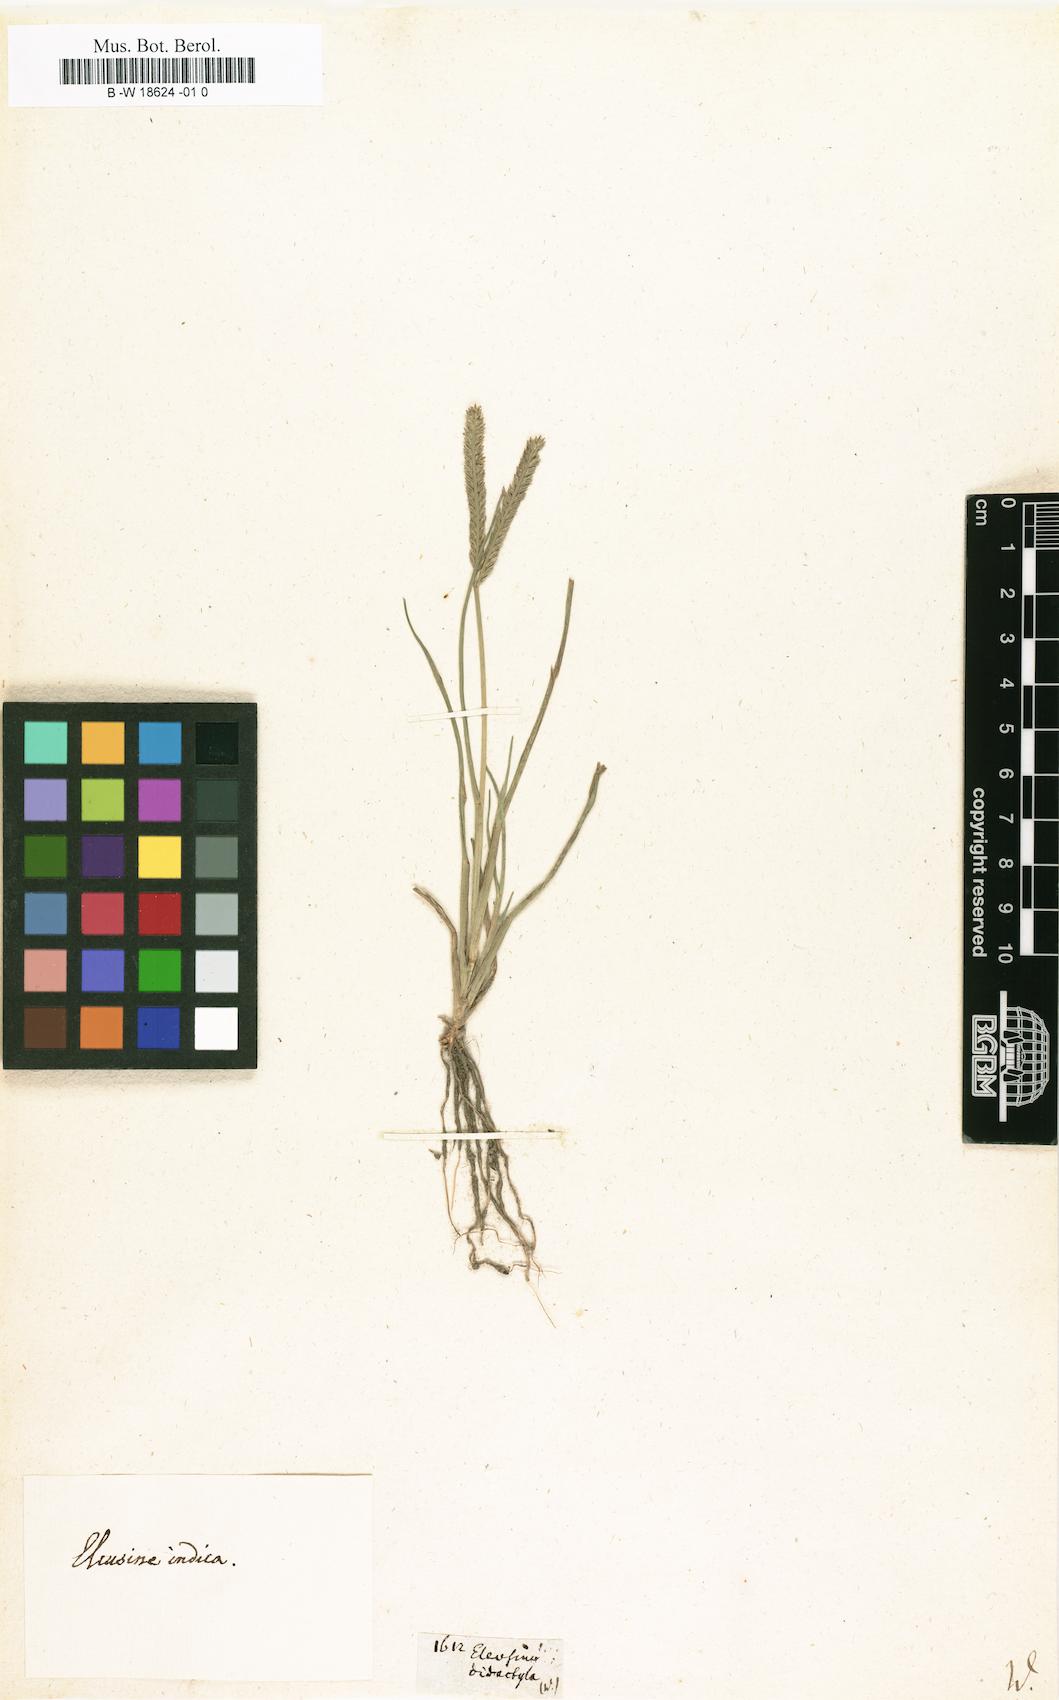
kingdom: Plantae
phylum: Tracheophyta
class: Liliopsida
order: Poales
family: Poaceae
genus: Dactyloctenium
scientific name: Dactyloctenium
